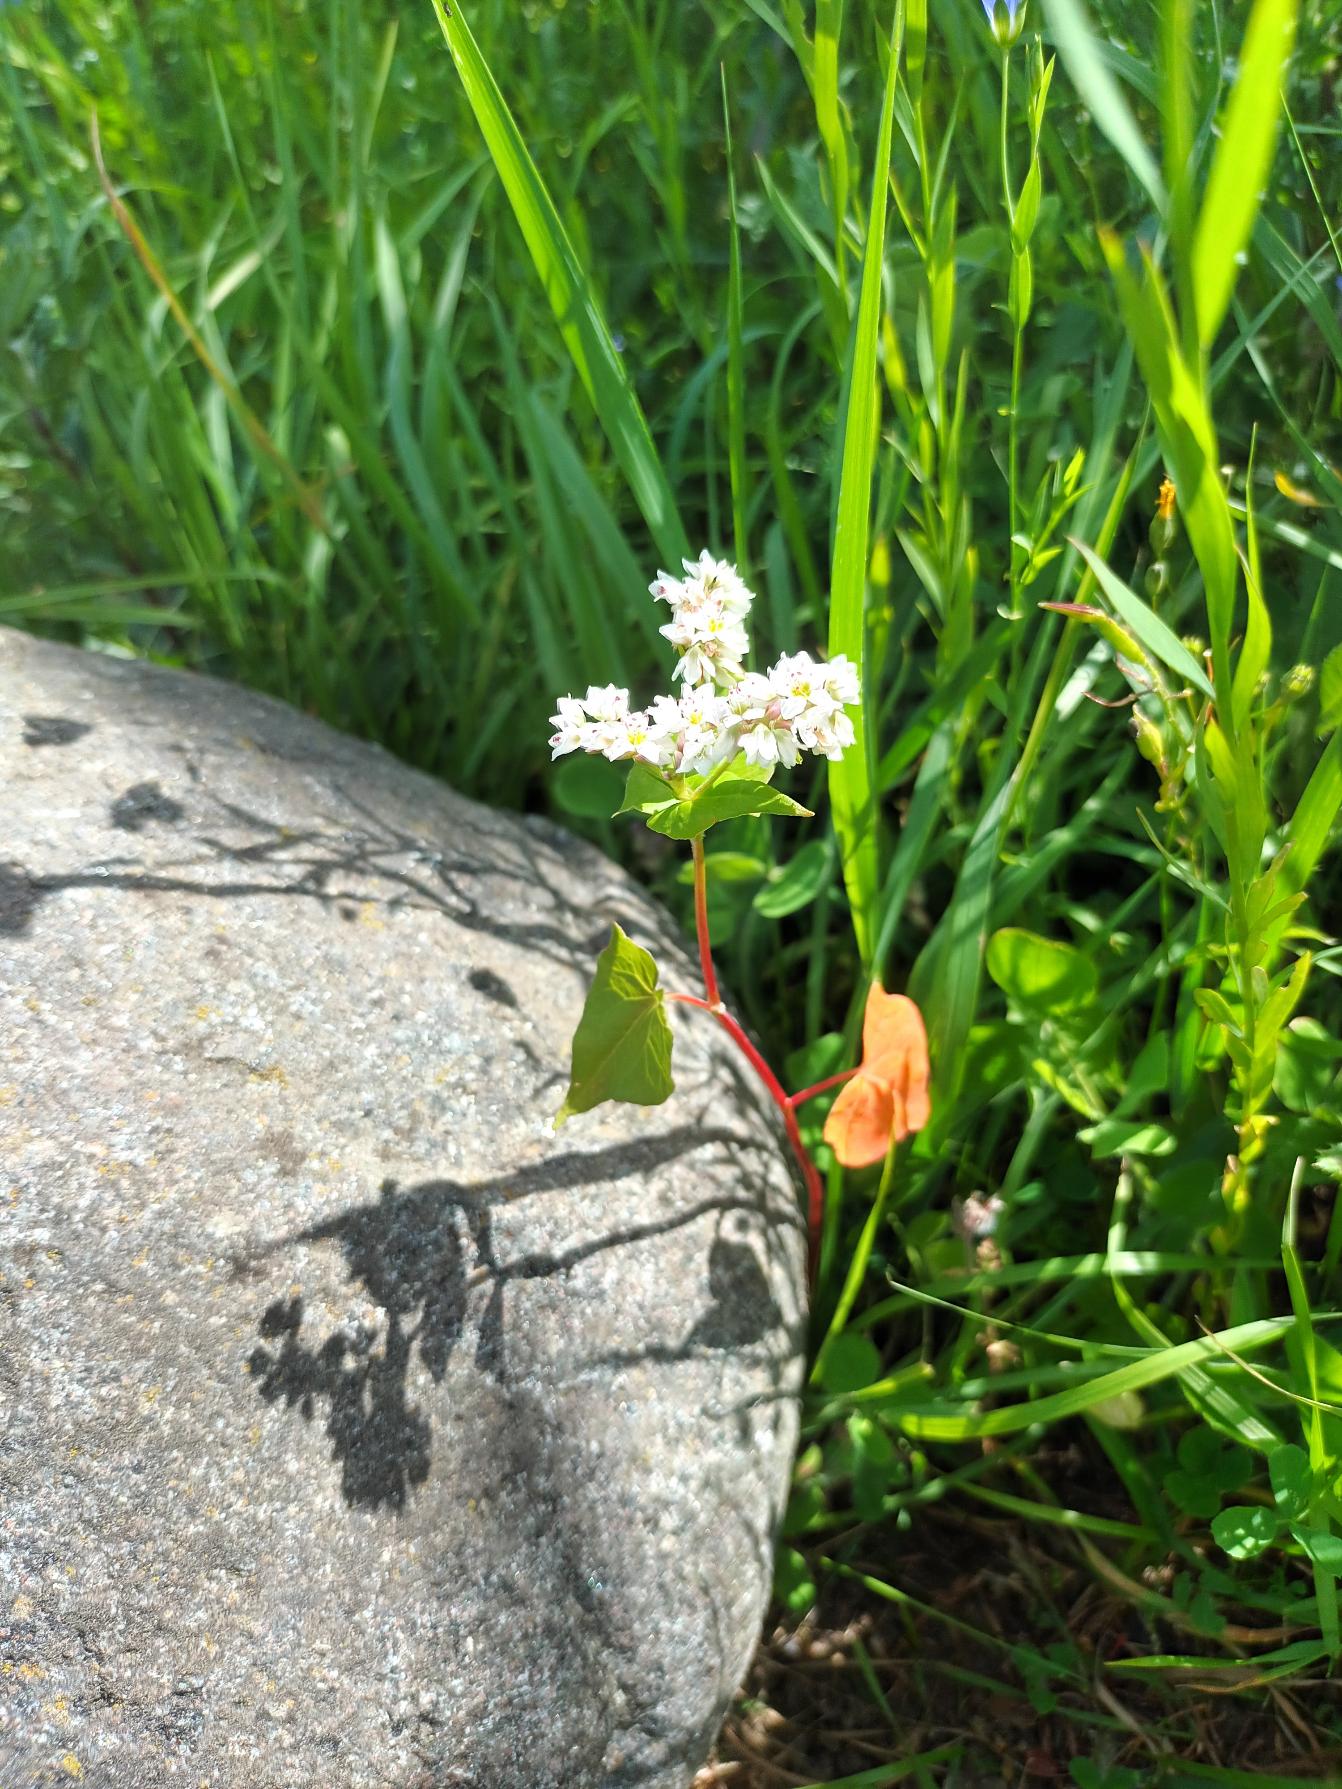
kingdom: Plantae
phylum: Tracheophyta
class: Magnoliopsida
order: Caryophyllales
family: Polygonaceae
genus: Fagopyrum
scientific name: Fagopyrum esculentum
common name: Almindelig boghvede
